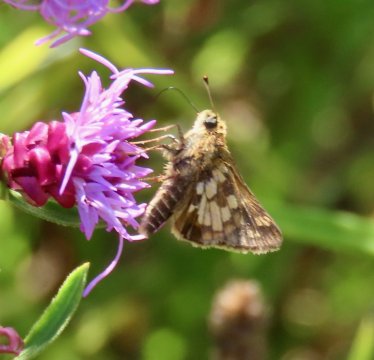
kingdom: Animalia
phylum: Arthropoda
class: Insecta
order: Lepidoptera
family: Hesperiidae
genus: Polites
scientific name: Polites coras
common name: Peck's Skipper
